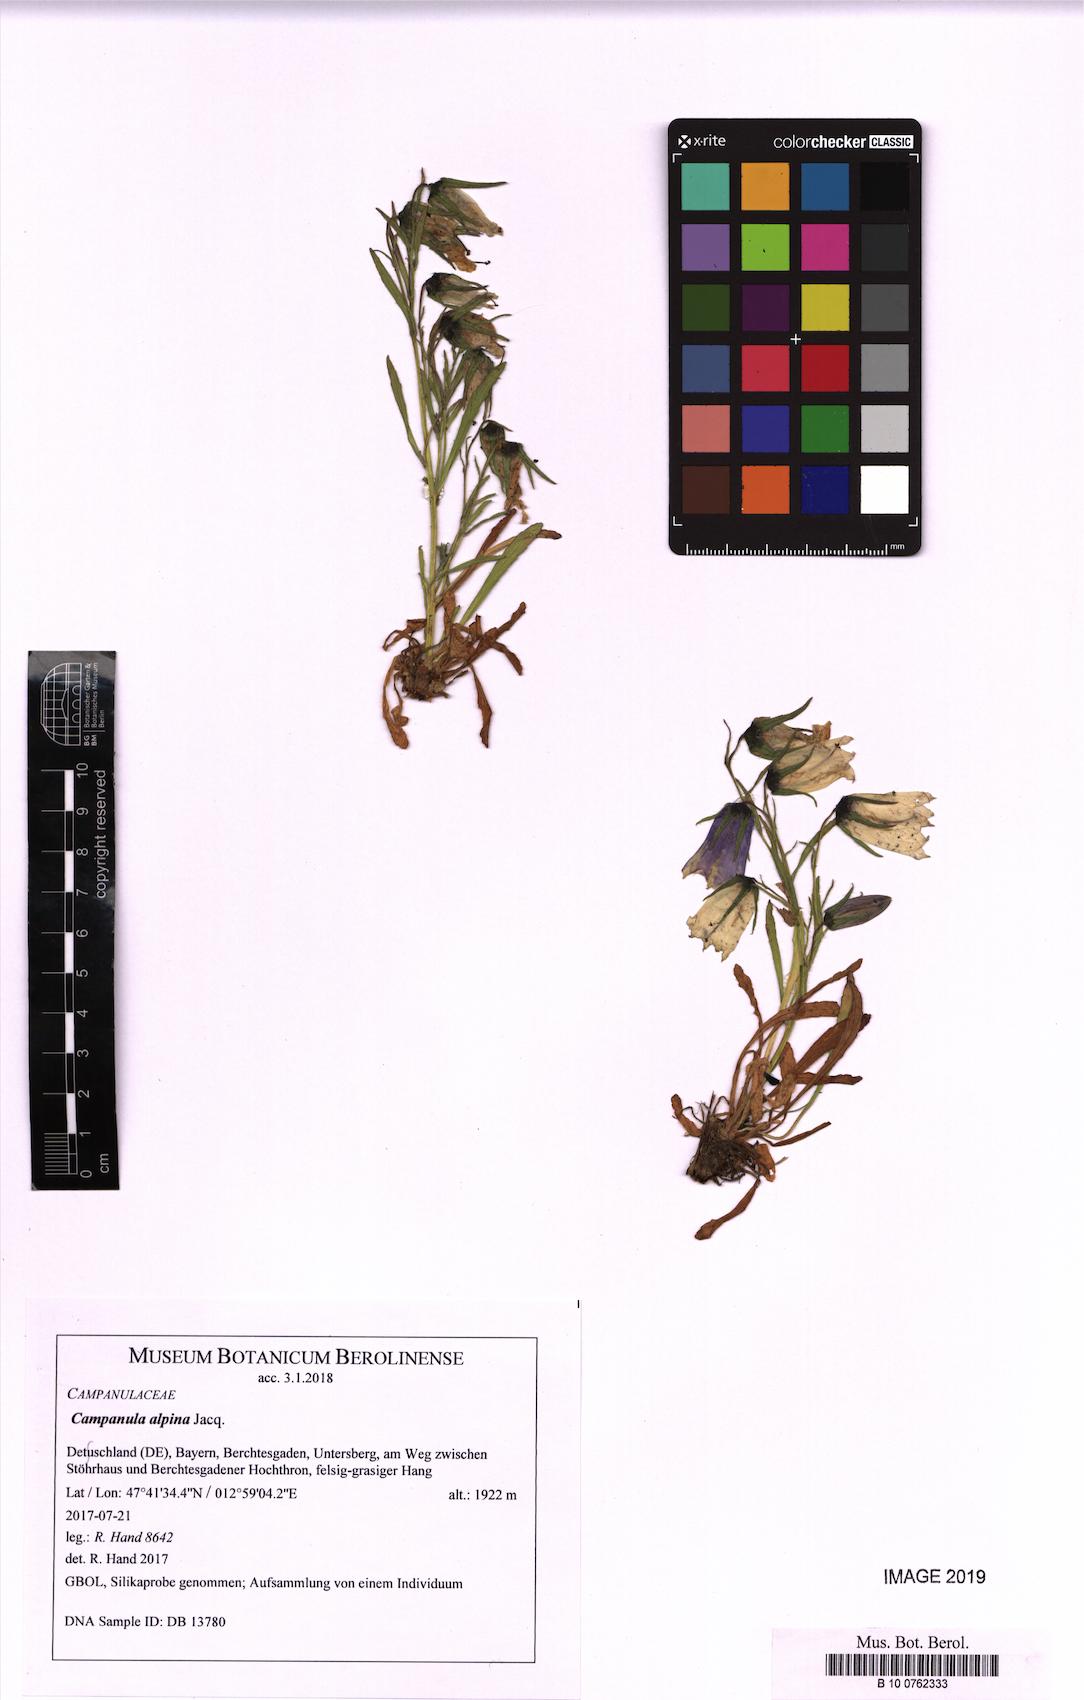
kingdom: Plantae
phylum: Tracheophyta
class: Magnoliopsida
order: Asterales
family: Campanulaceae
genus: Campanula
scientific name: Campanula alpina
